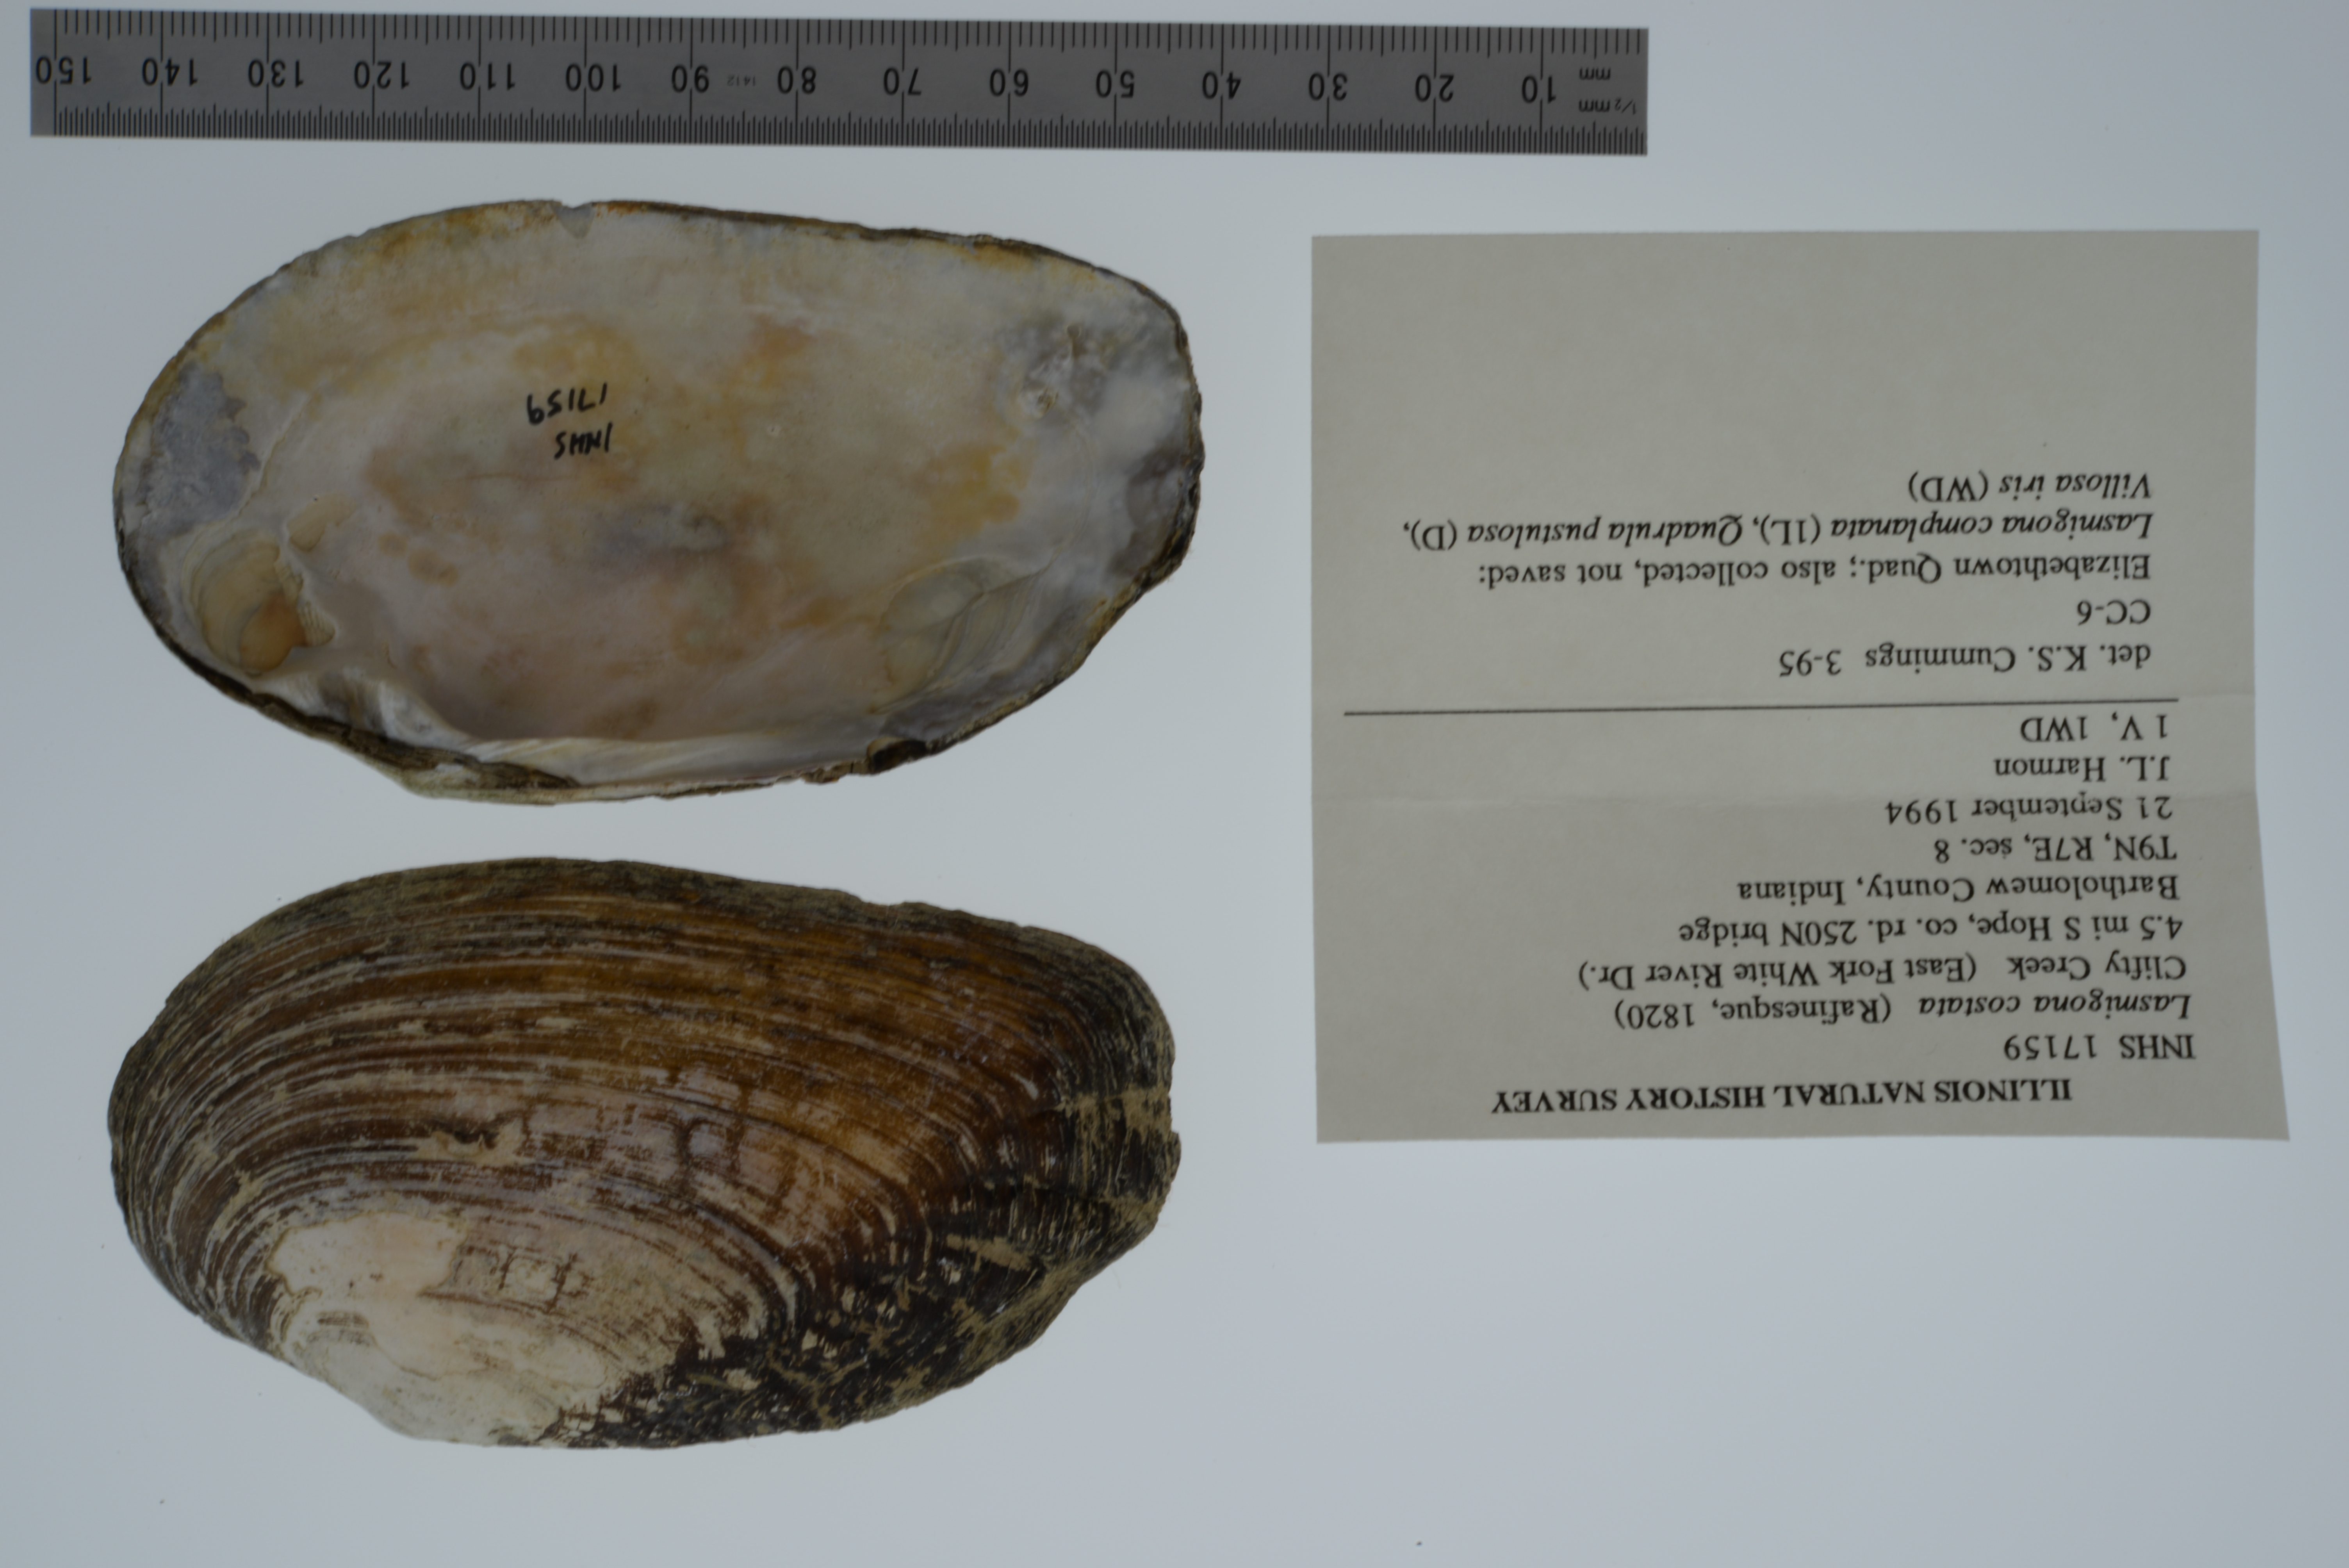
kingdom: Animalia
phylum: Mollusca
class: Bivalvia
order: Unionida
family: Unionidae
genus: Lasmigona
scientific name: Lasmigona costata
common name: Flutedshell
